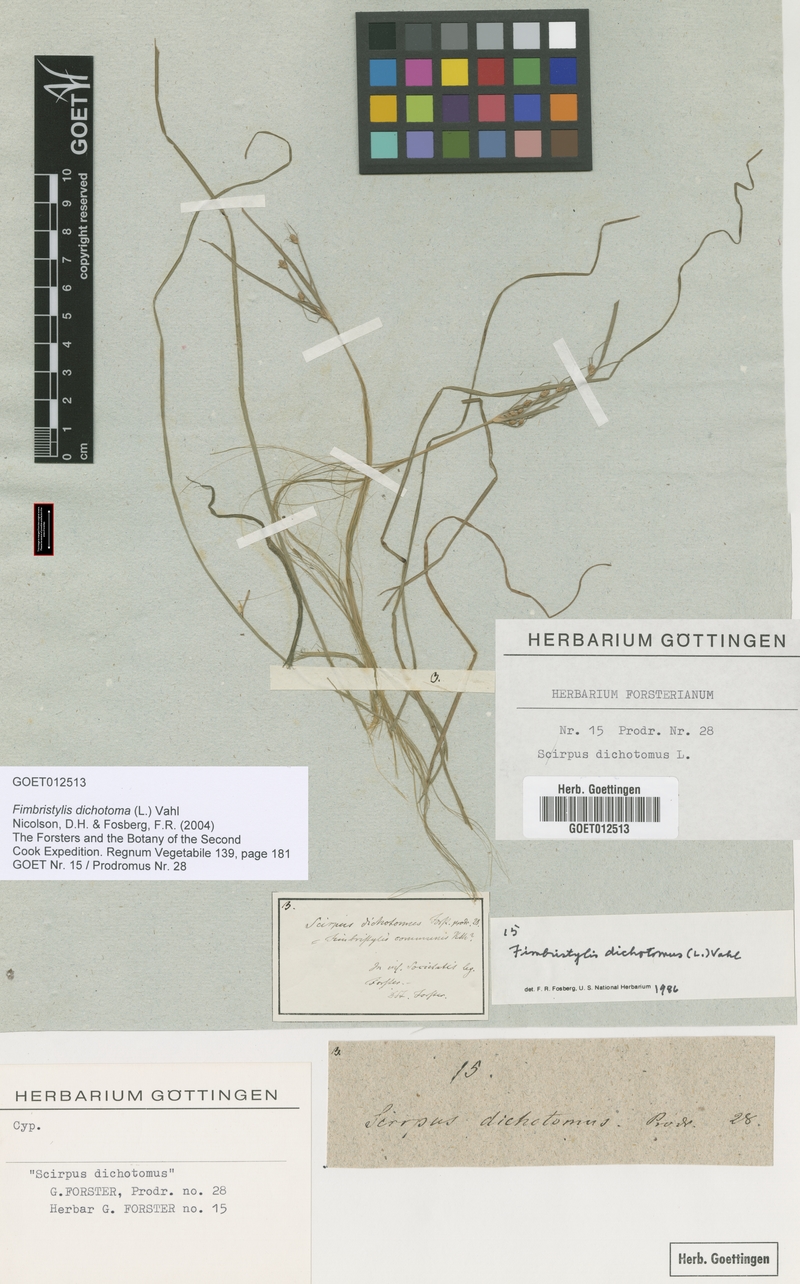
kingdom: Plantae
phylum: Tracheophyta
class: Liliopsida
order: Poales
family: Cyperaceae
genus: Fimbristylis
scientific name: Fimbristylis dichotoma
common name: Forked fimbry
